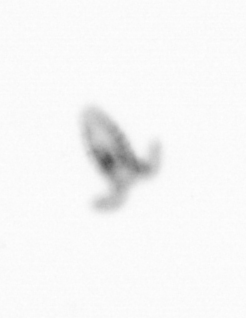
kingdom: Animalia
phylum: Arthropoda
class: Copepoda
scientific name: Copepoda
